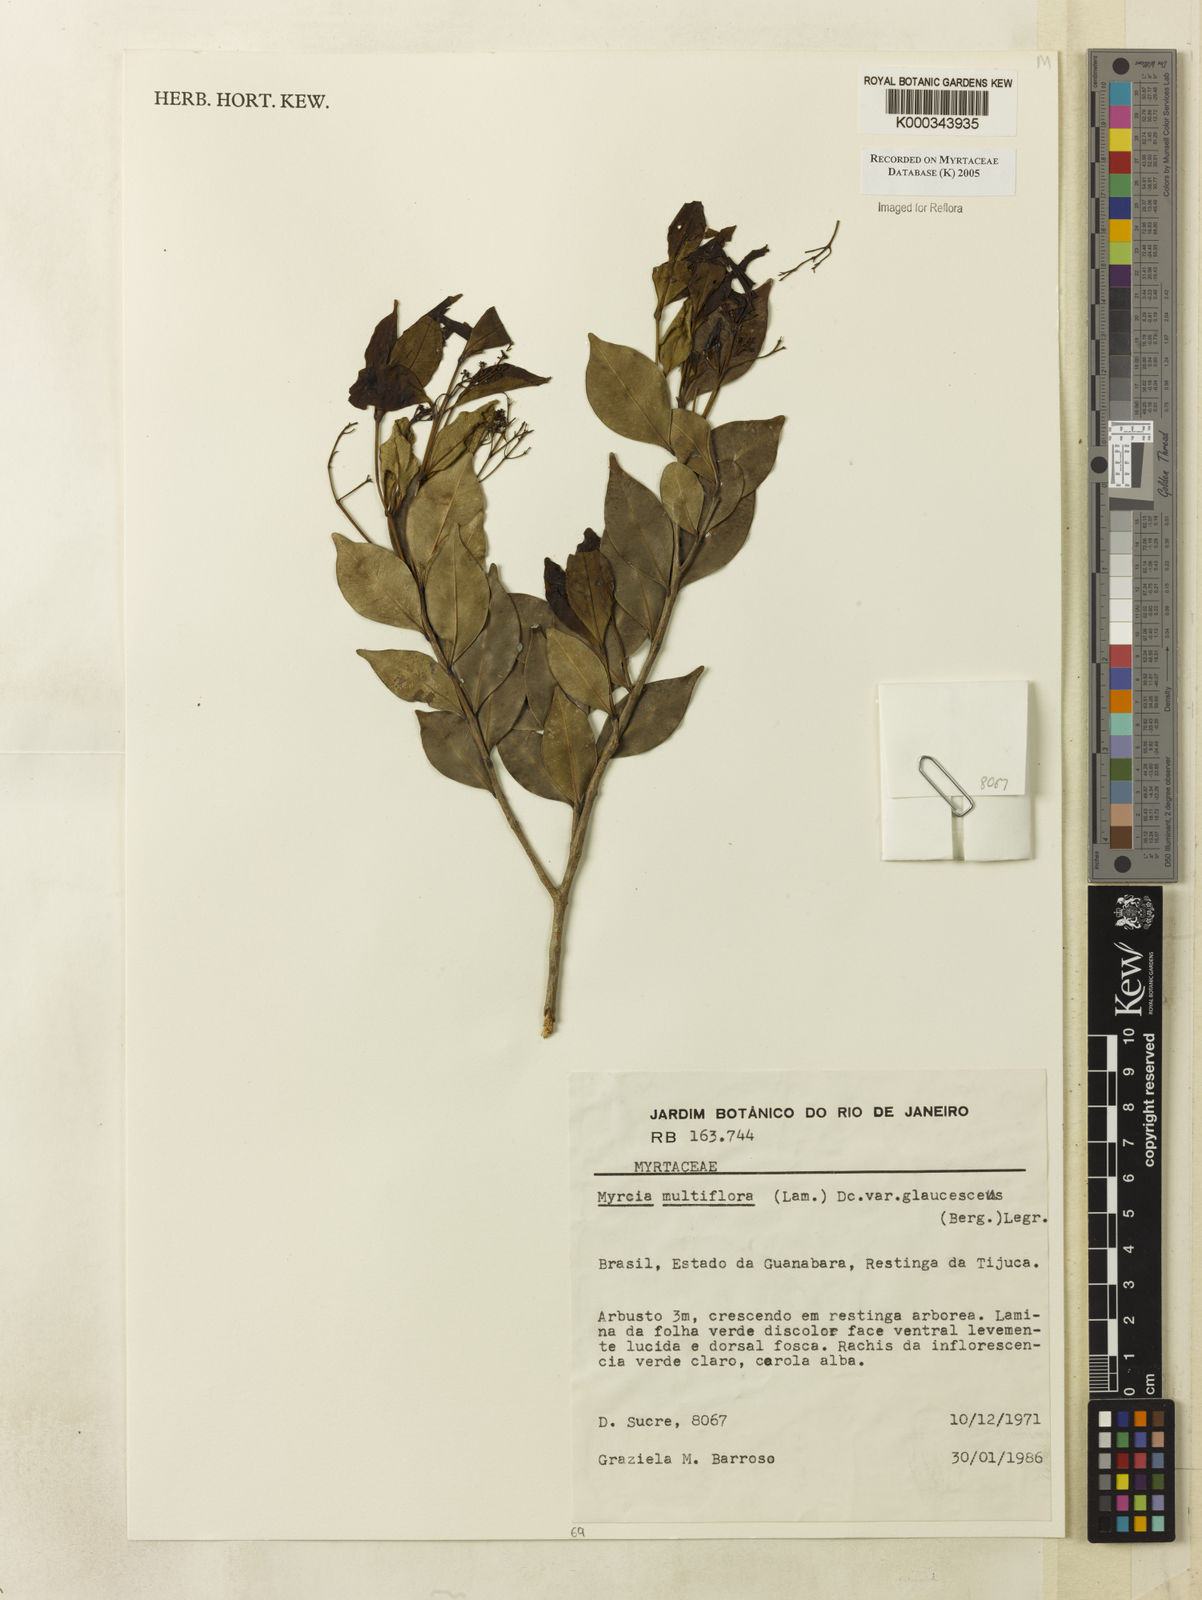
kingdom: Plantae
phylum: Tracheophyta
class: Magnoliopsida
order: Myrtales
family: Myrtaceae
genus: Myrcia
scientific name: Myrcia multiflora
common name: Pedra hume
